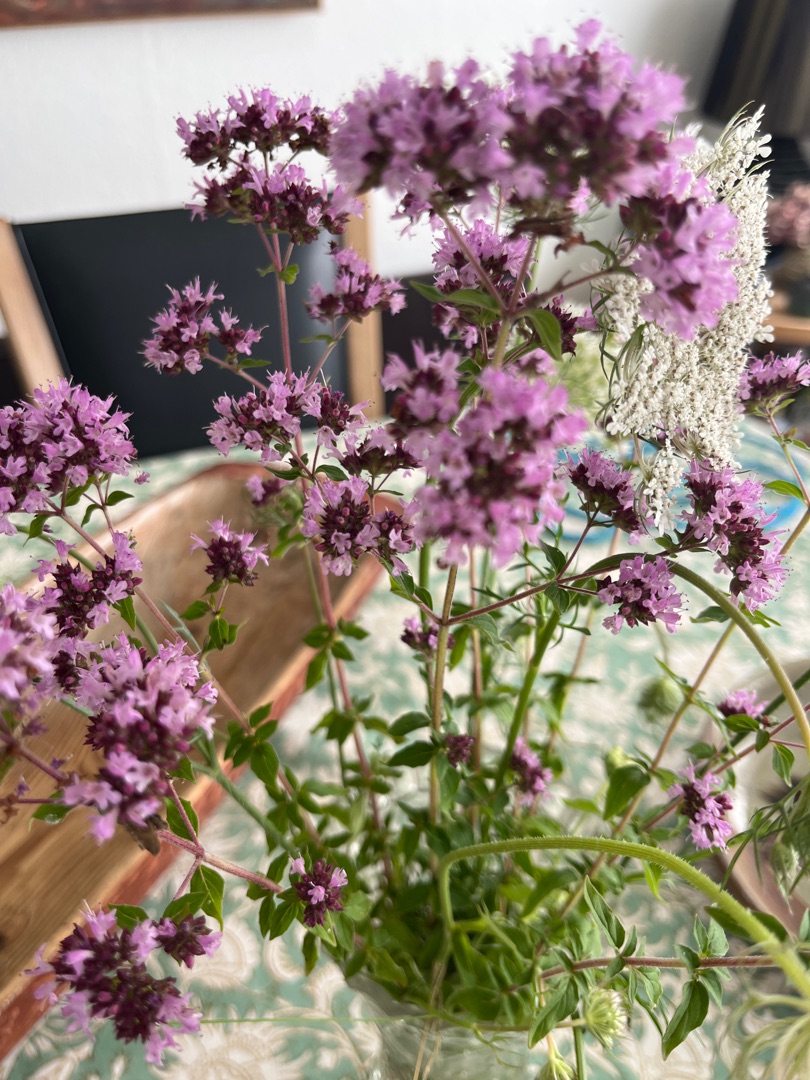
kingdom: Plantae
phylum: Tracheophyta
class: Magnoliopsida
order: Lamiales
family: Lamiaceae
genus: Origanum
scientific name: Origanum vulgare
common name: Merian
